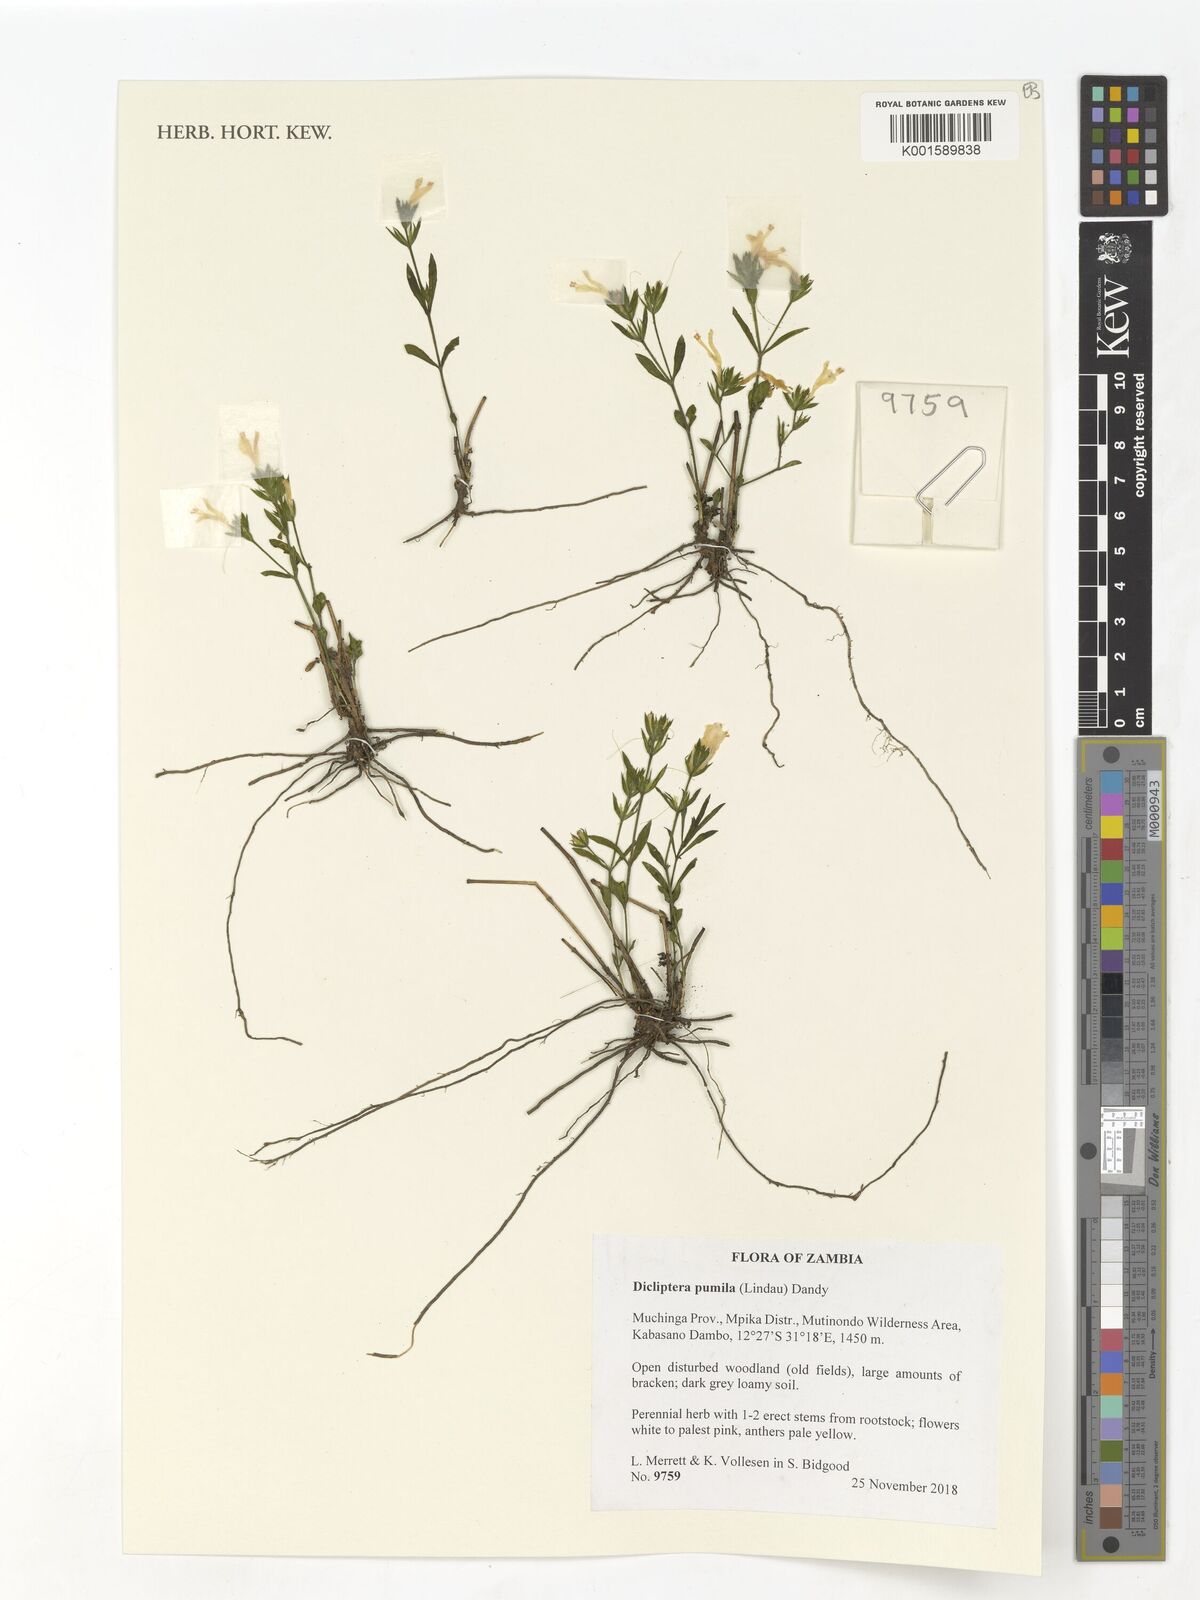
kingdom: Plantae
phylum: Tracheophyta
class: Magnoliopsida
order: Lamiales
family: Acanthaceae
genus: Dicliptera
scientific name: Dicliptera pumila
